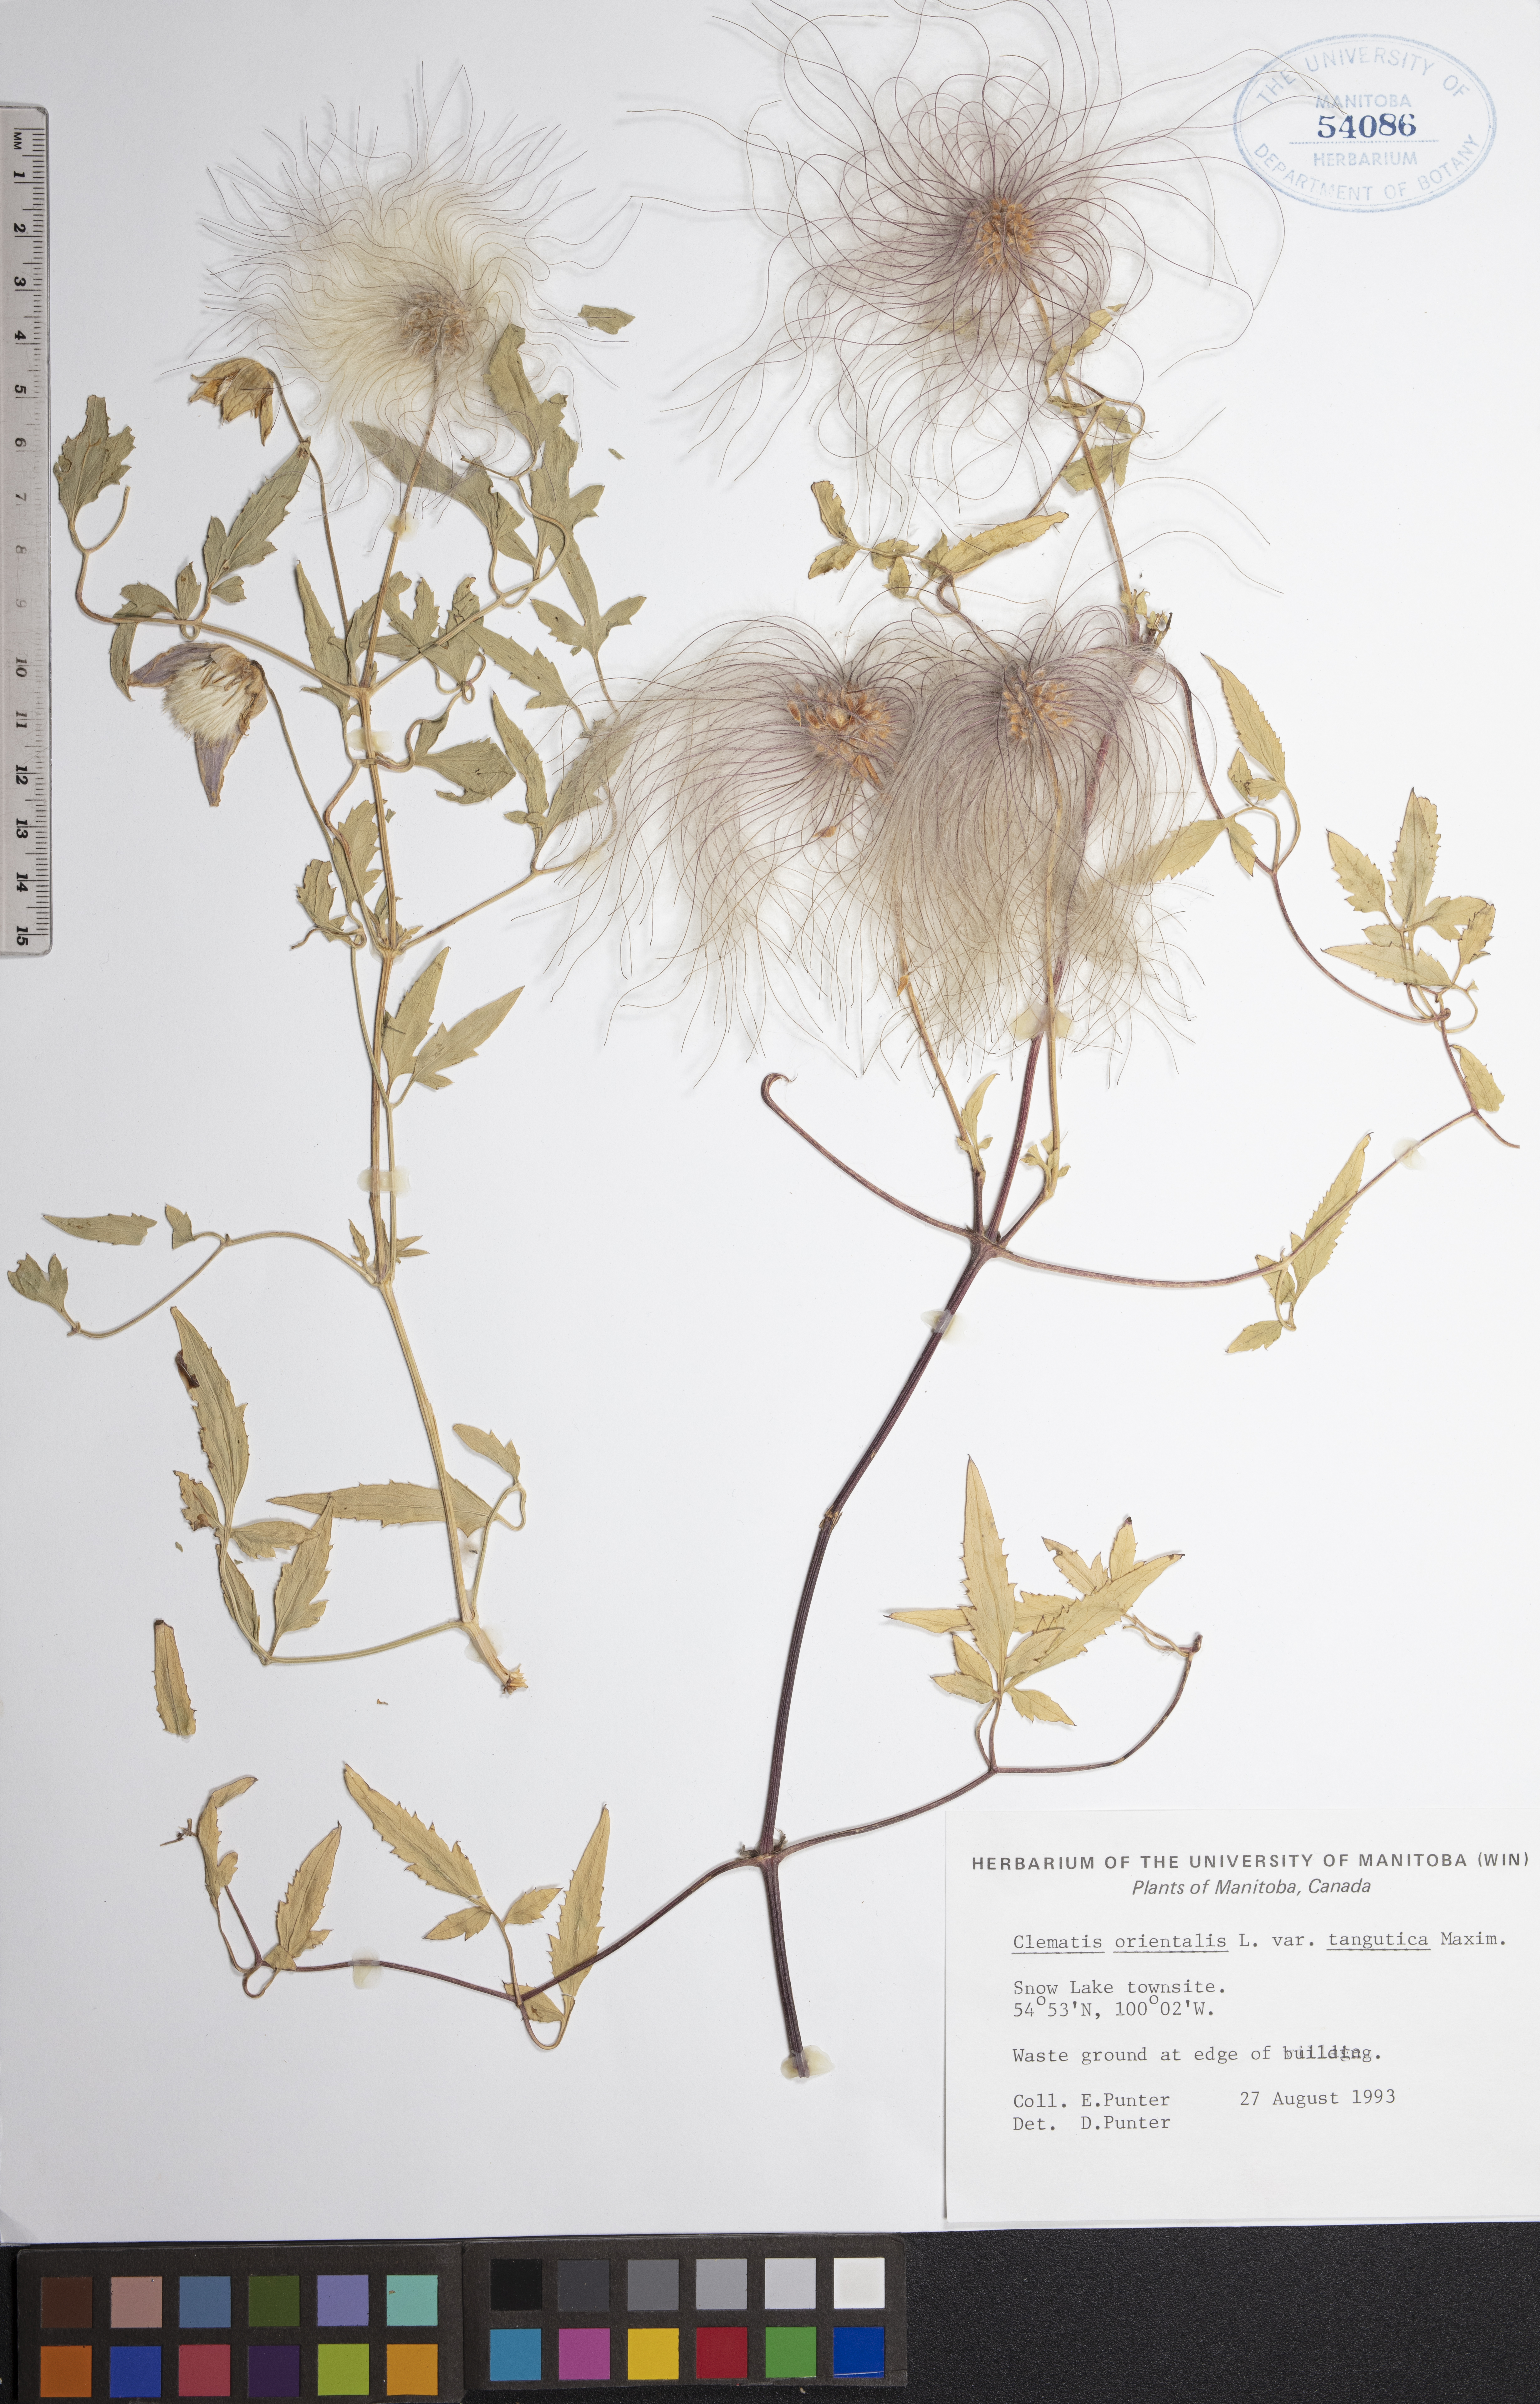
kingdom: Plantae
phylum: Tracheophyta
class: Magnoliopsida
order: Ranunculales
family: Ranunculaceae
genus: Clematis
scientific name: Clematis tangutica
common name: Orange-peel clematis
